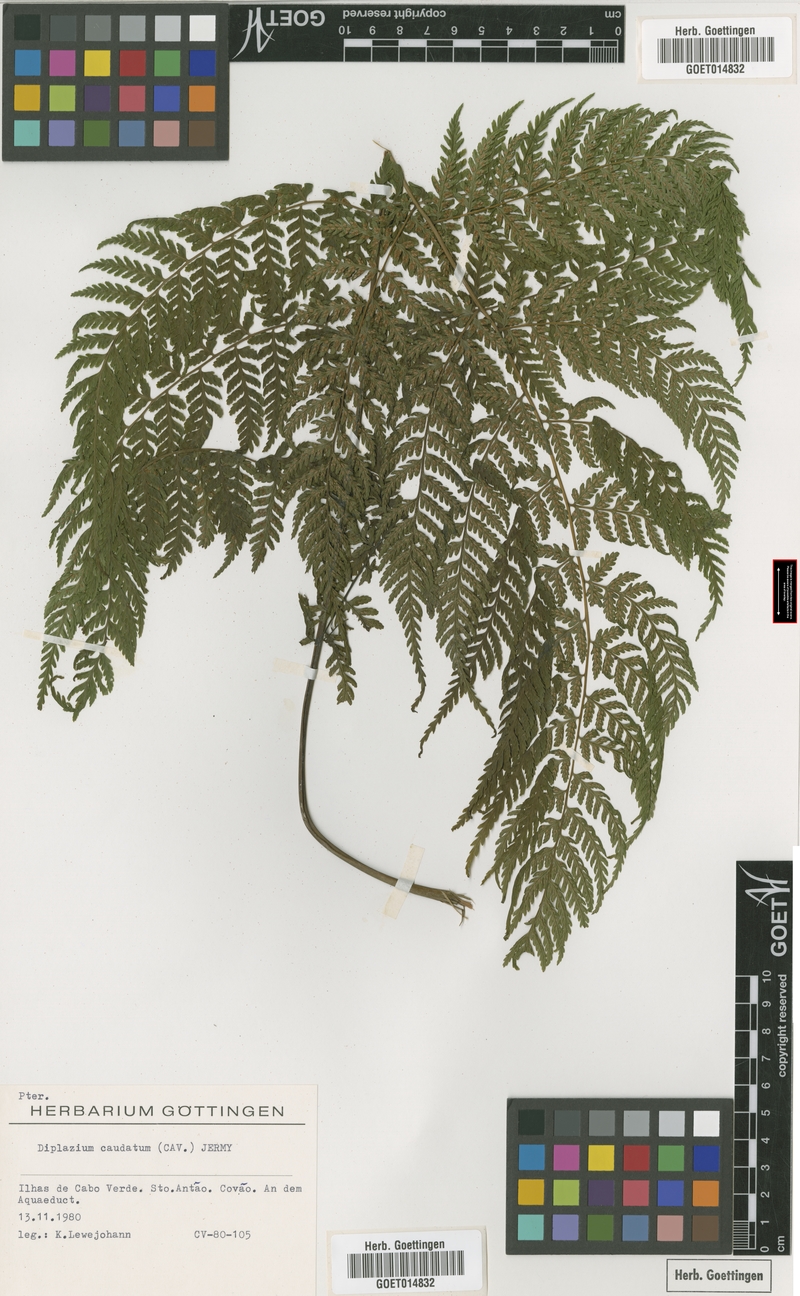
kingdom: Plantae
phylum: Tracheophyta
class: Polypodiopsida
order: Polypodiales
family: Athyriaceae
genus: Diplazium
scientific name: Diplazium caudatum
